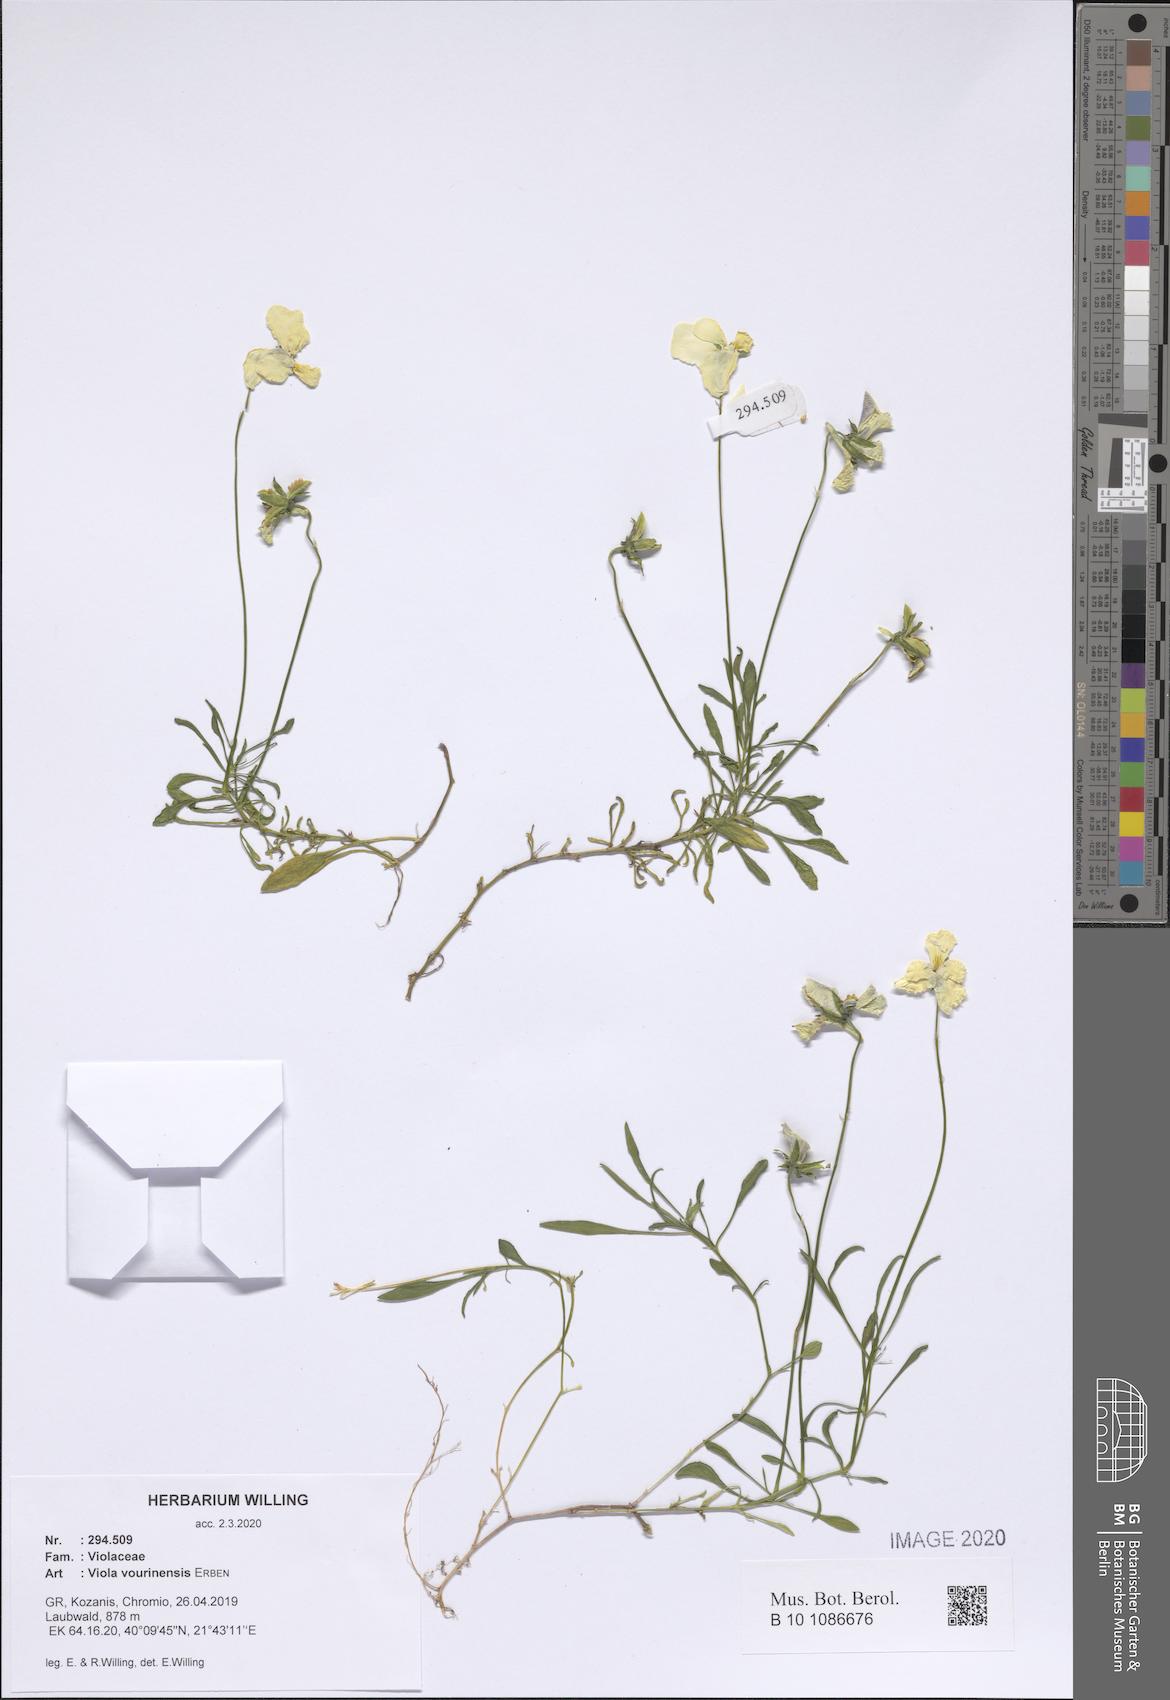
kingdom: Plantae
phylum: Tracheophyta
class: Magnoliopsida
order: Malpighiales
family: Violaceae
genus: Viola
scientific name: Viola vourinensis
